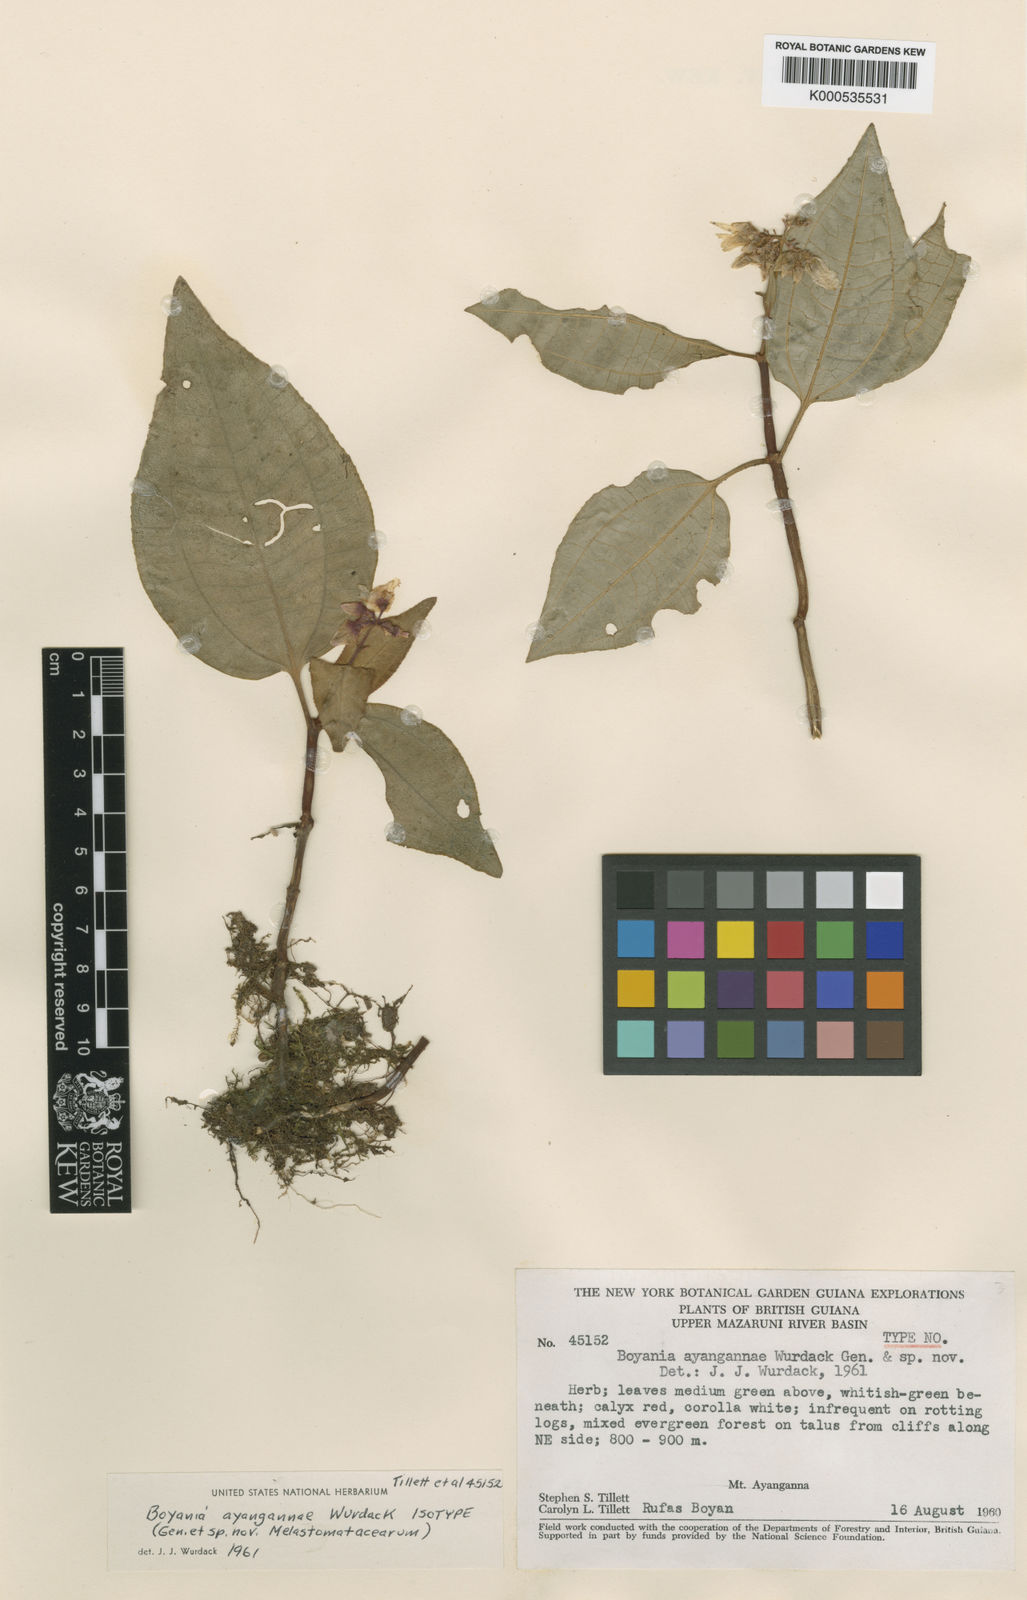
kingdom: Plantae
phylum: Tracheophyta
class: Magnoliopsida
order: Myrtales
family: Melastomataceae
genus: Boyania
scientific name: Boyania ayangannae
